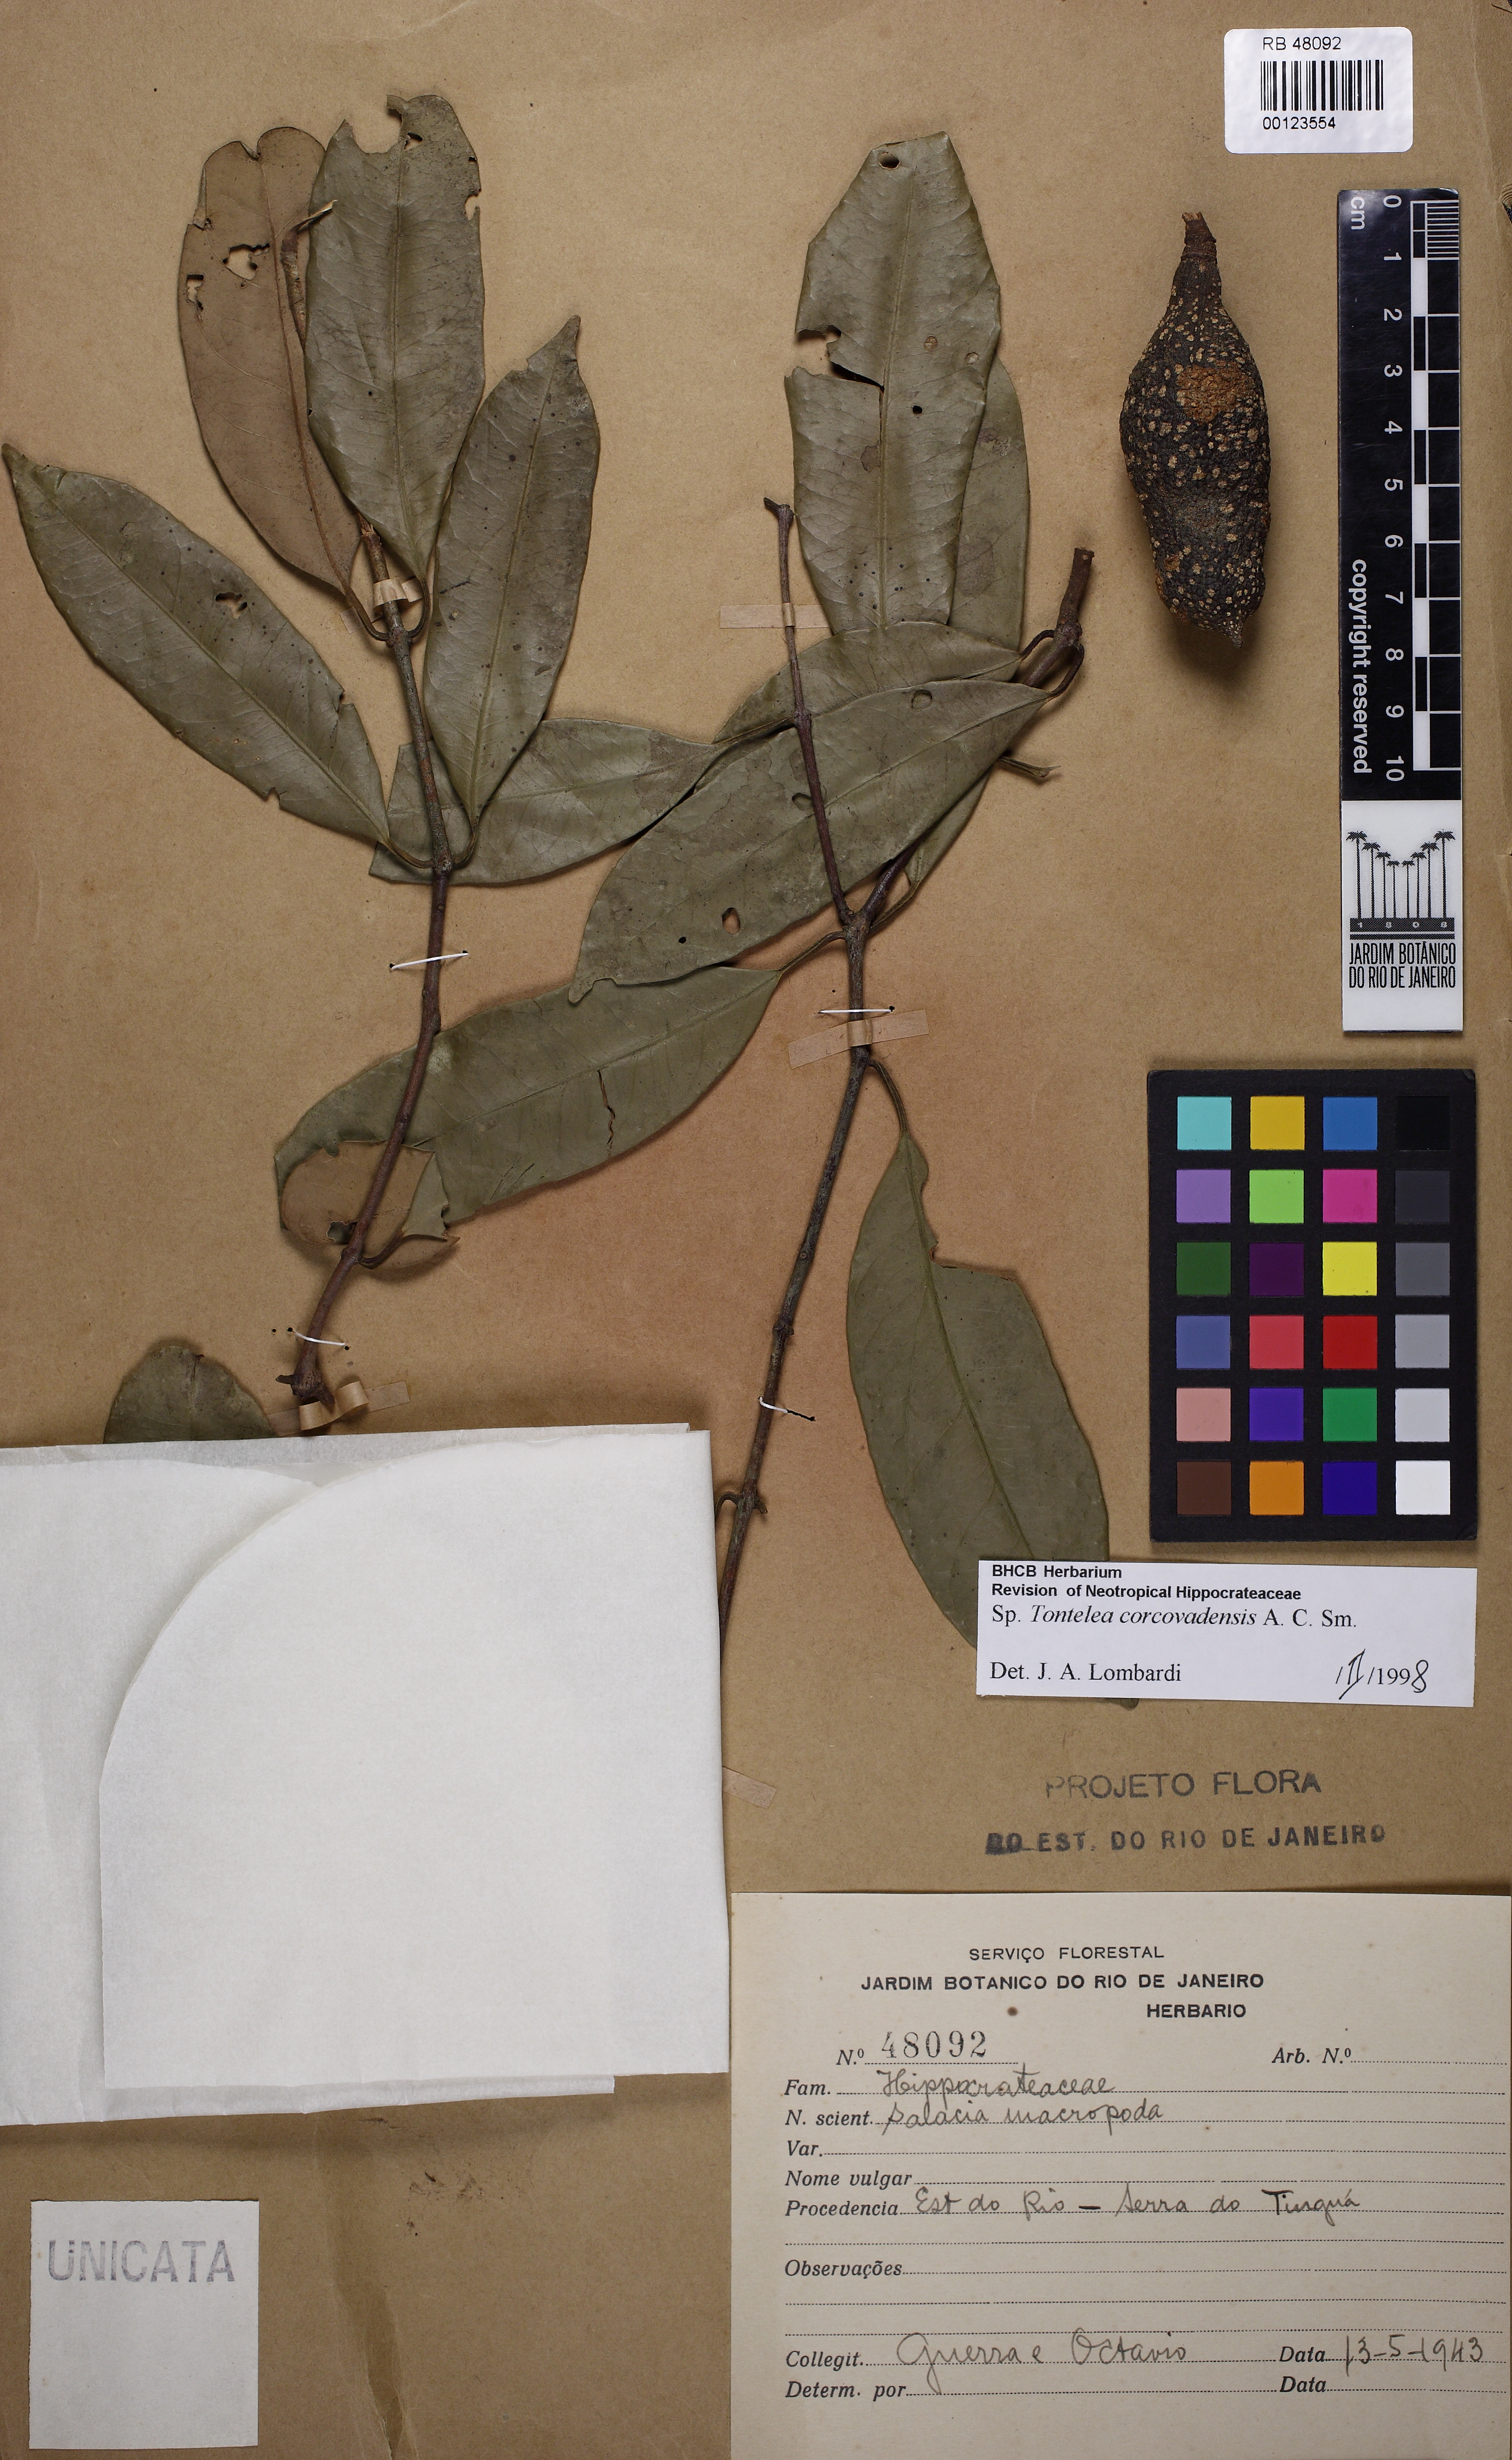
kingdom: Plantae
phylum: Tracheophyta
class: Magnoliopsida
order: Celastrales
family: Celastraceae
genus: Tontelea
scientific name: Tontelea corcovadensis
